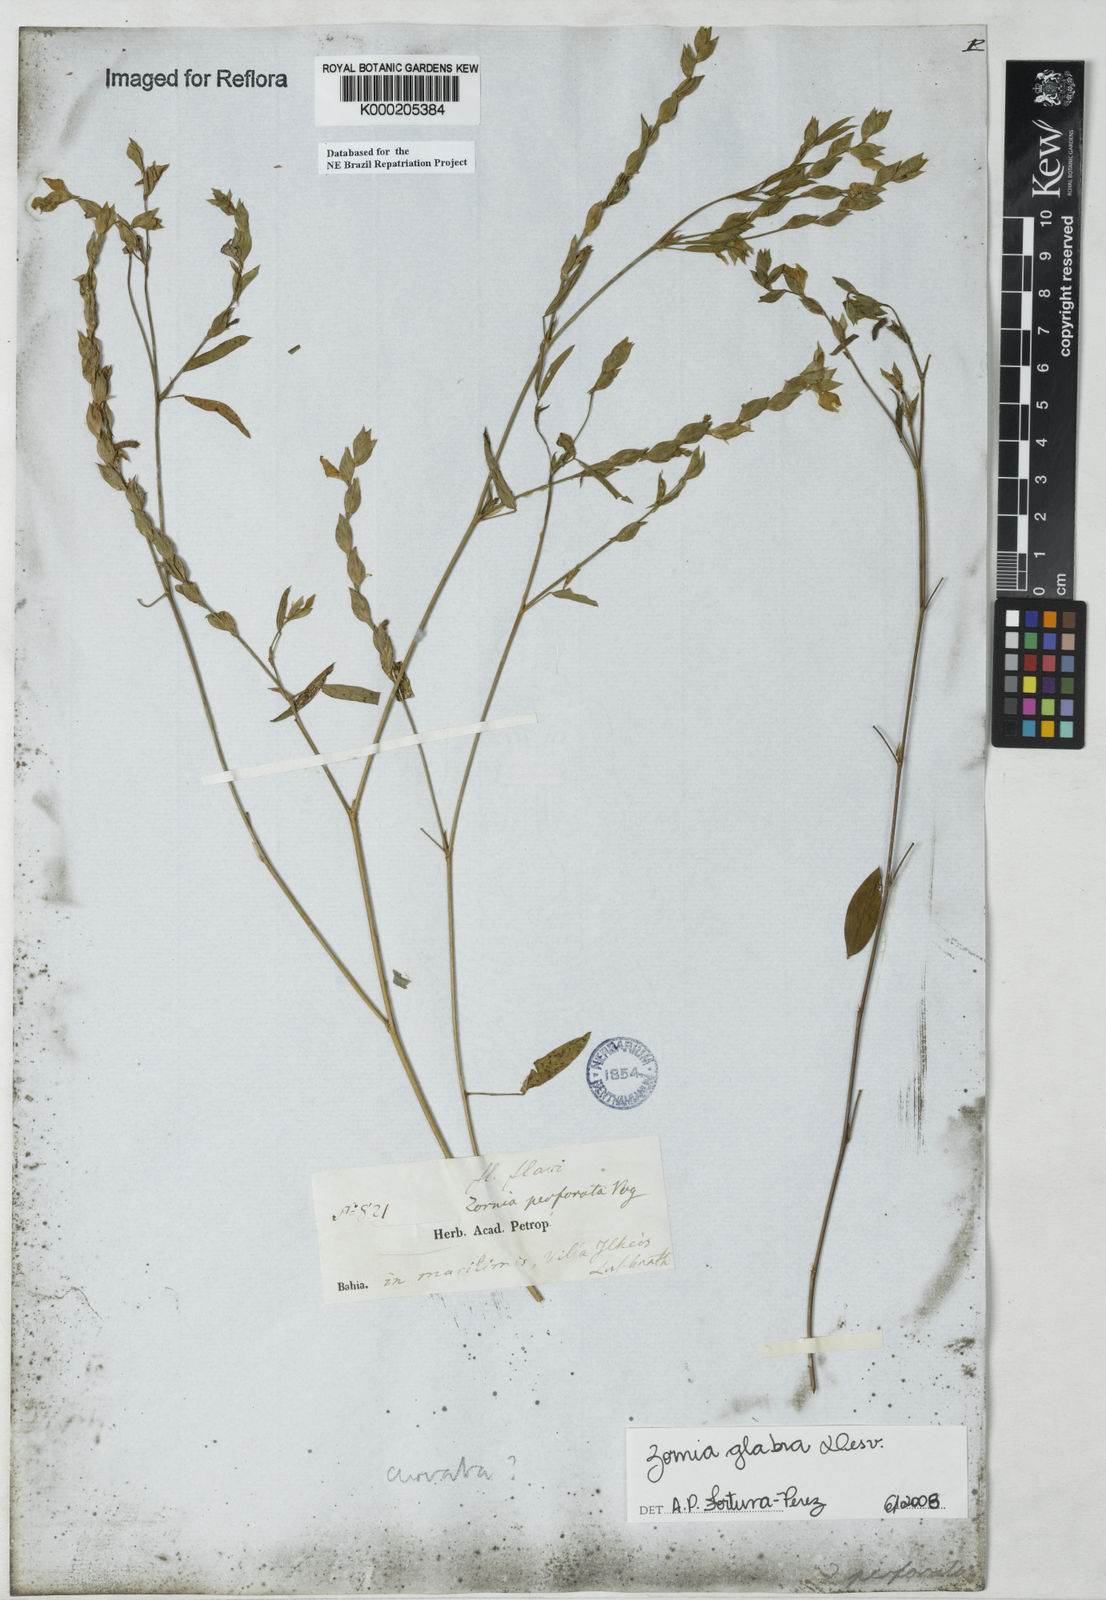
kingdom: Plantae
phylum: Tracheophyta
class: Magnoliopsida
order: Fabales
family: Fabaceae
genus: Zornia
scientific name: Zornia glabra
